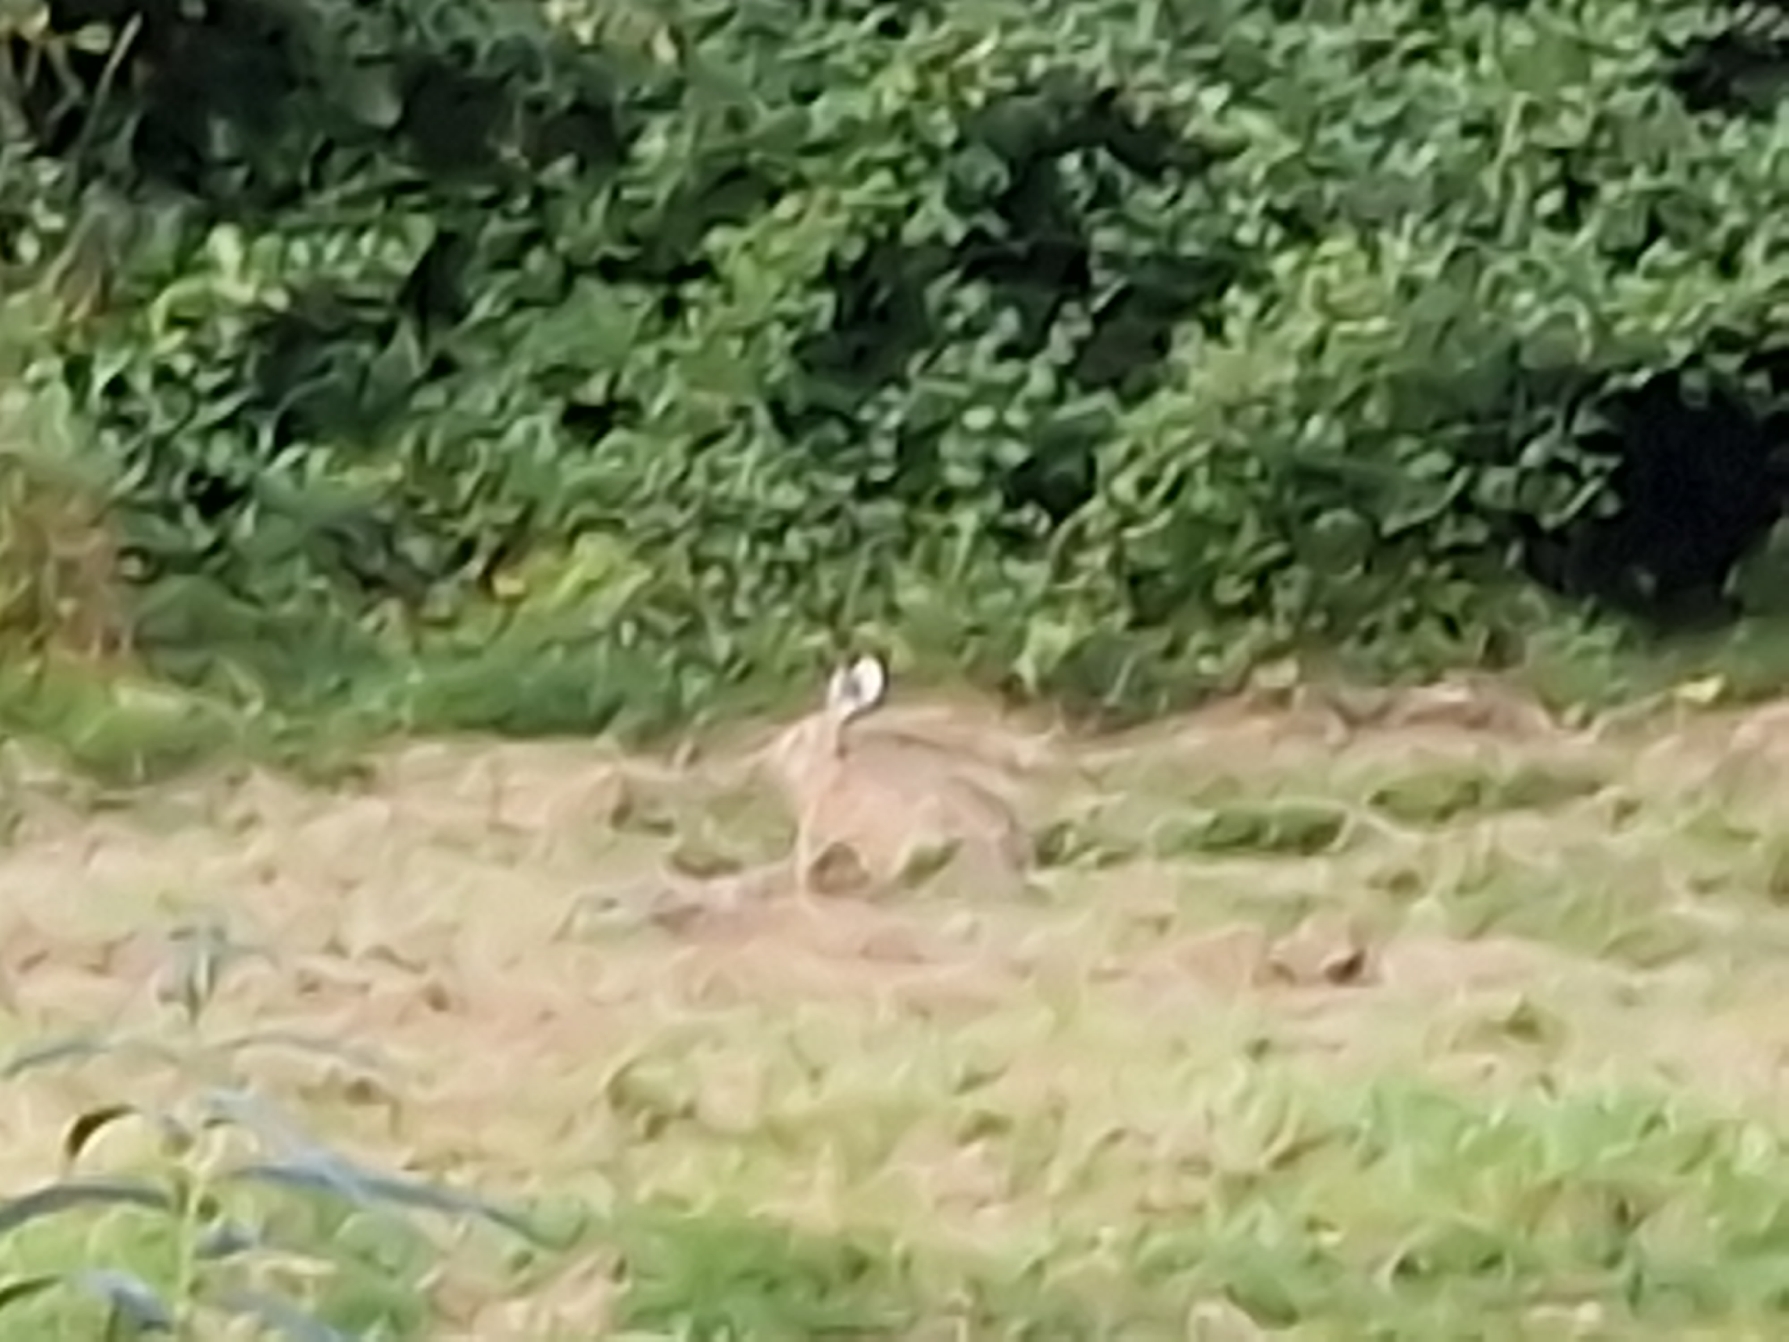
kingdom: Animalia
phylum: Chordata
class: Mammalia
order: Lagomorpha
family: Leporidae
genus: Lepus
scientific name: Lepus europaeus
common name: Hare
